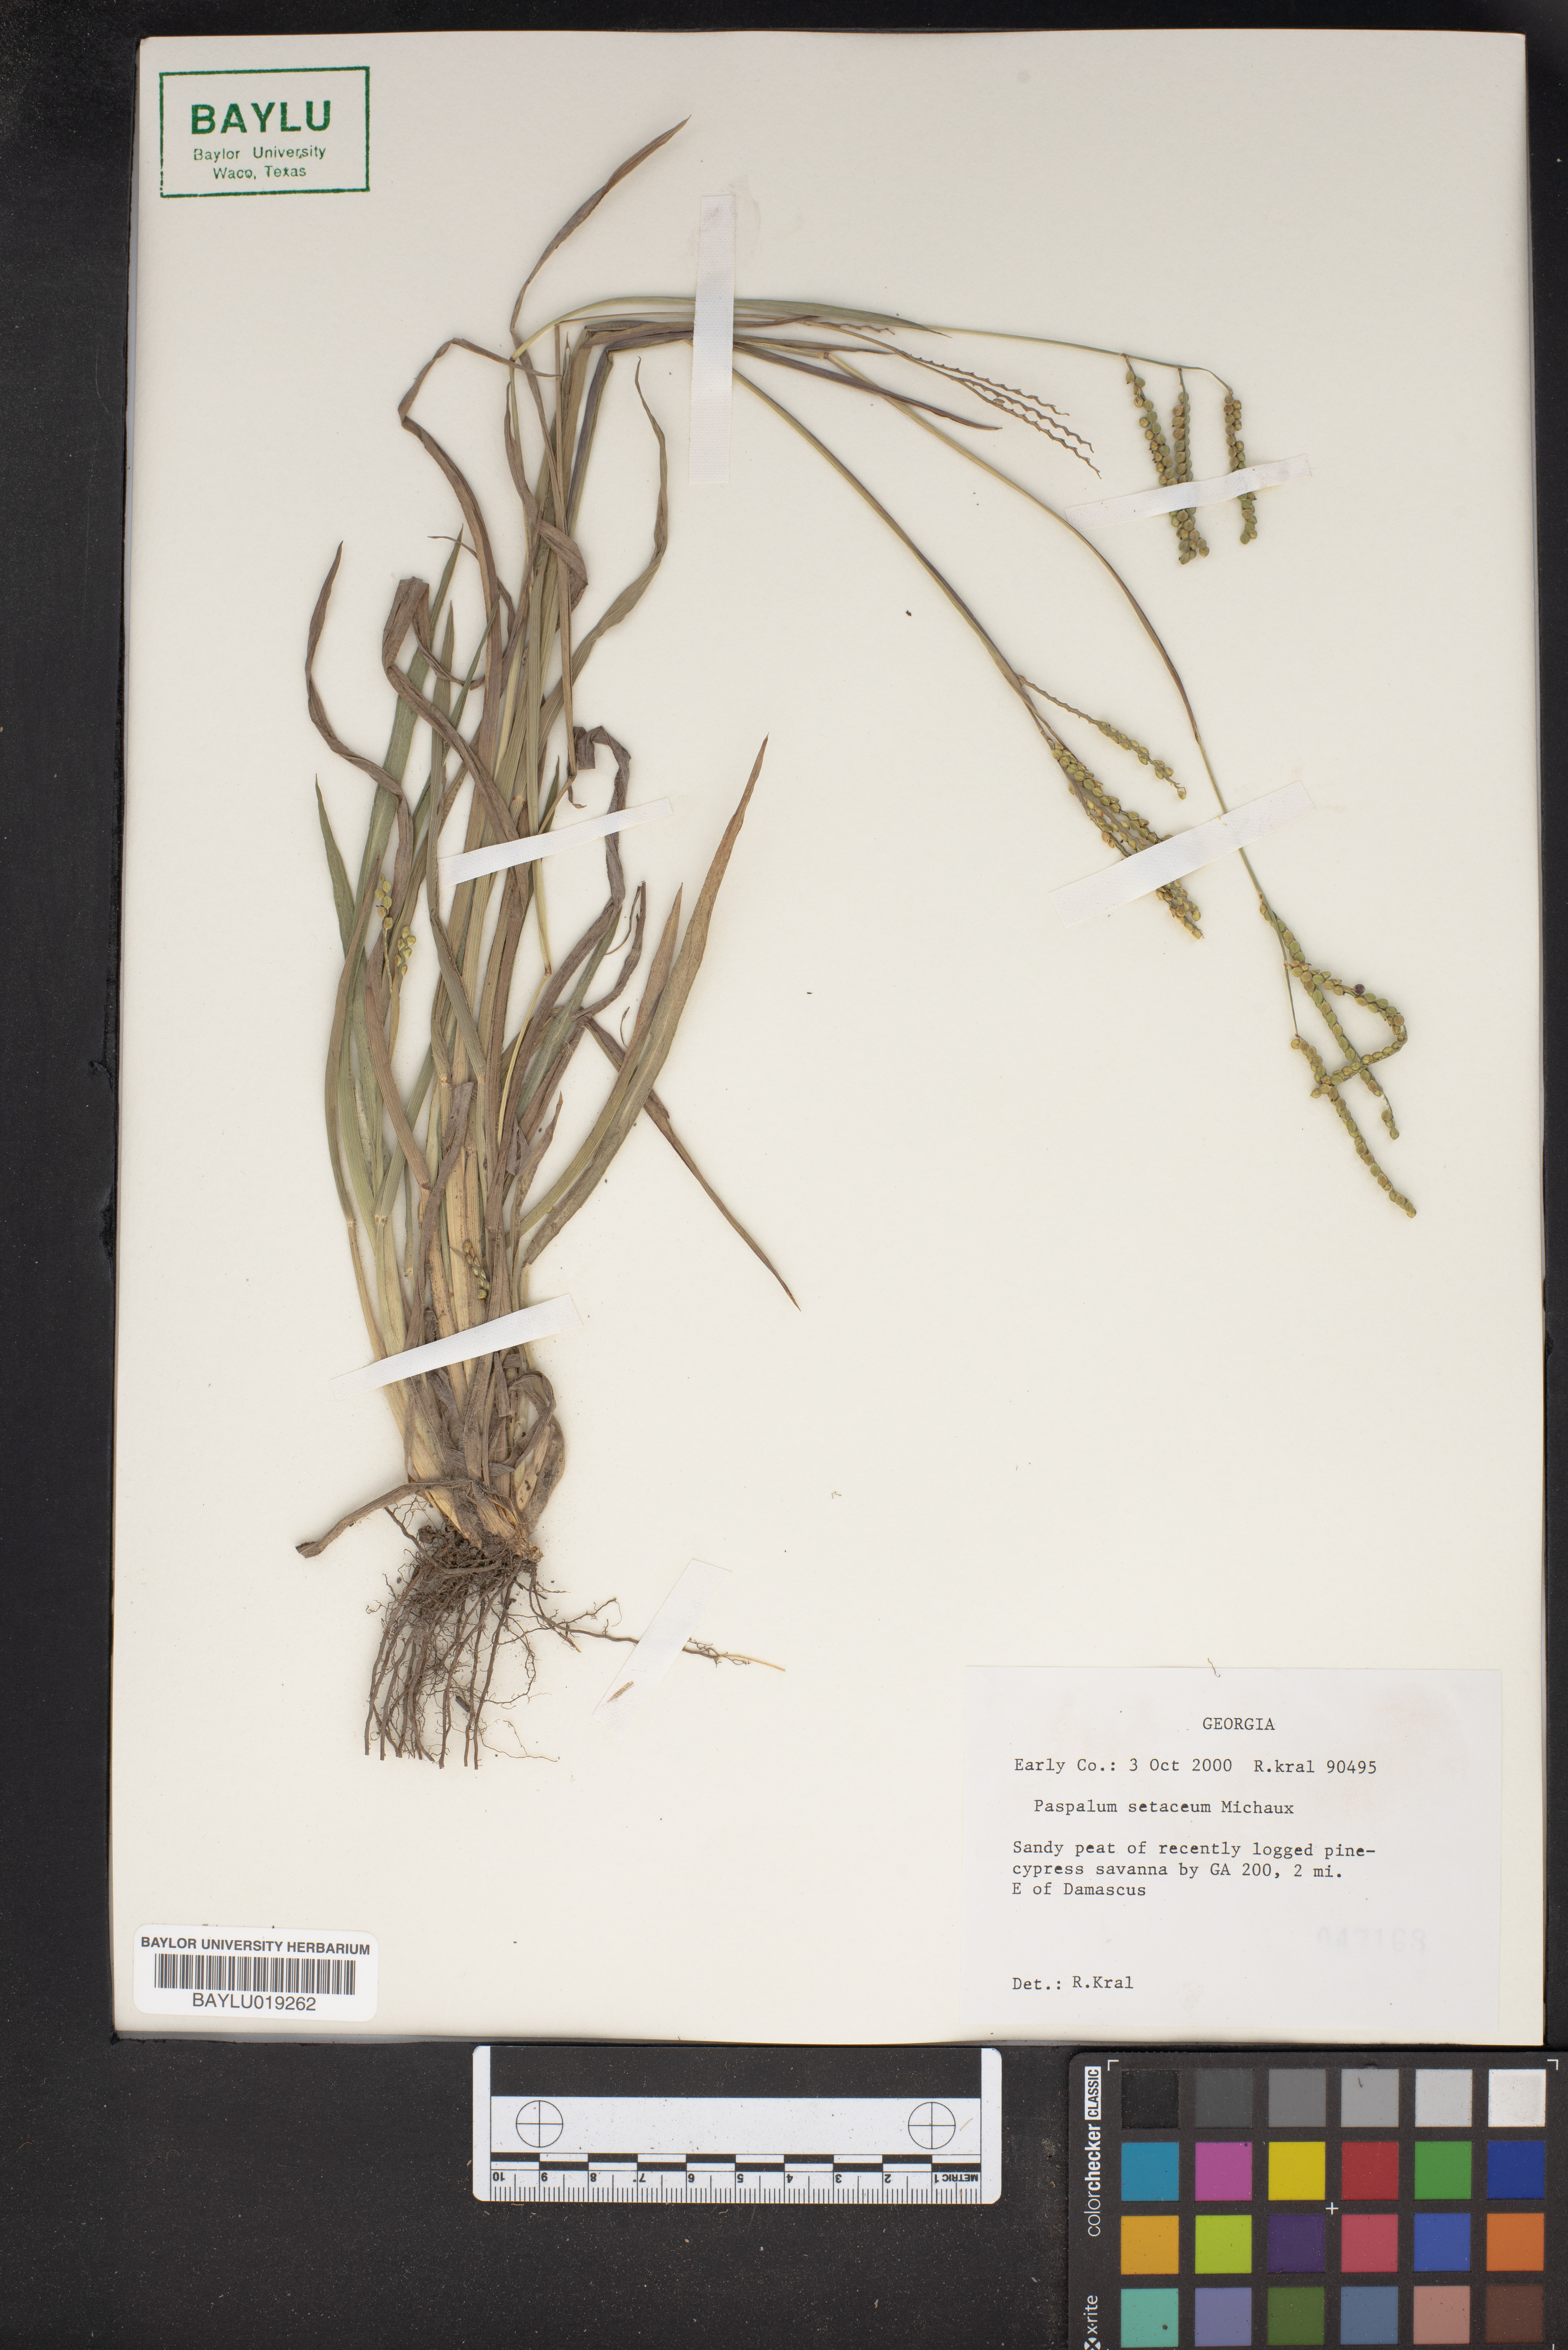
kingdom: Plantae
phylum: Tracheophyta
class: Liliopsida
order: Poales
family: Poaceae
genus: Paspalum
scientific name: Paspalum setaceum
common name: Slender paspalum
